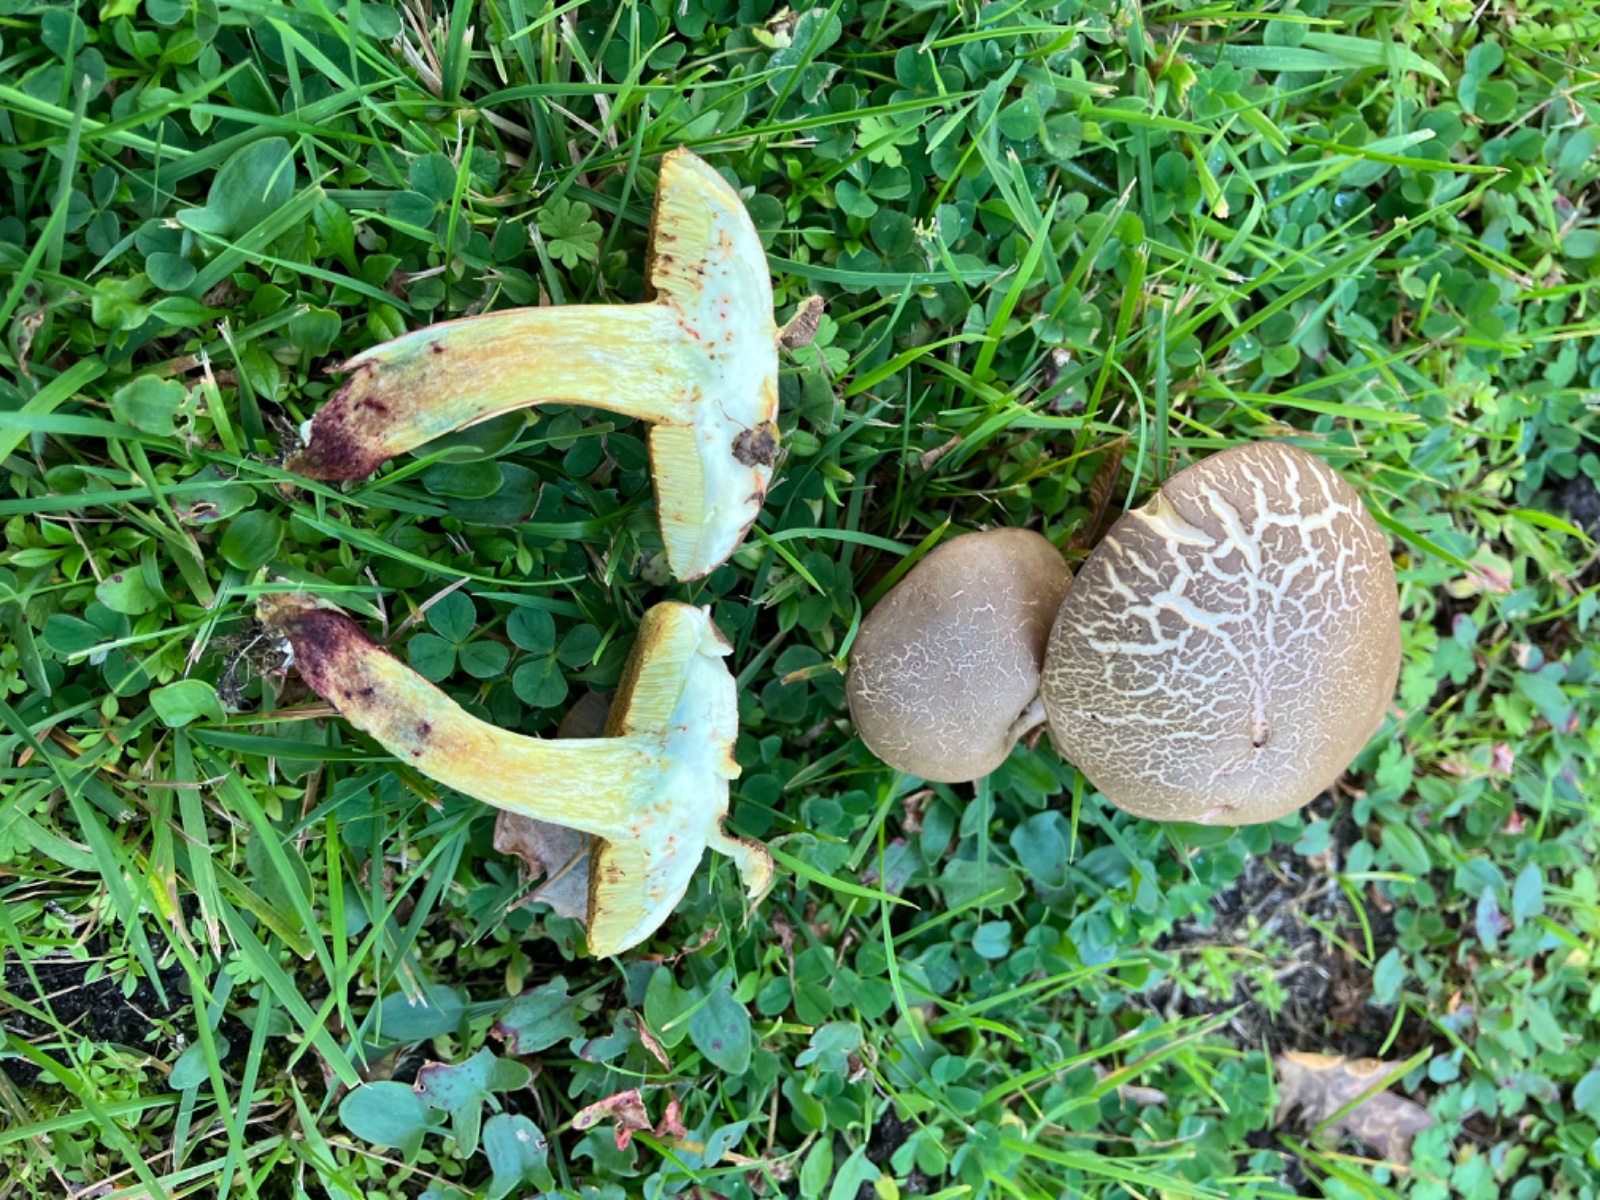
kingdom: Fungi
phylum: Basidiomycota
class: Agaricomycetes
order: Boletales
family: Boletaceae
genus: Xerocomellus
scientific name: Xerocomellus cisalpinus
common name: finsprukken rørhat
